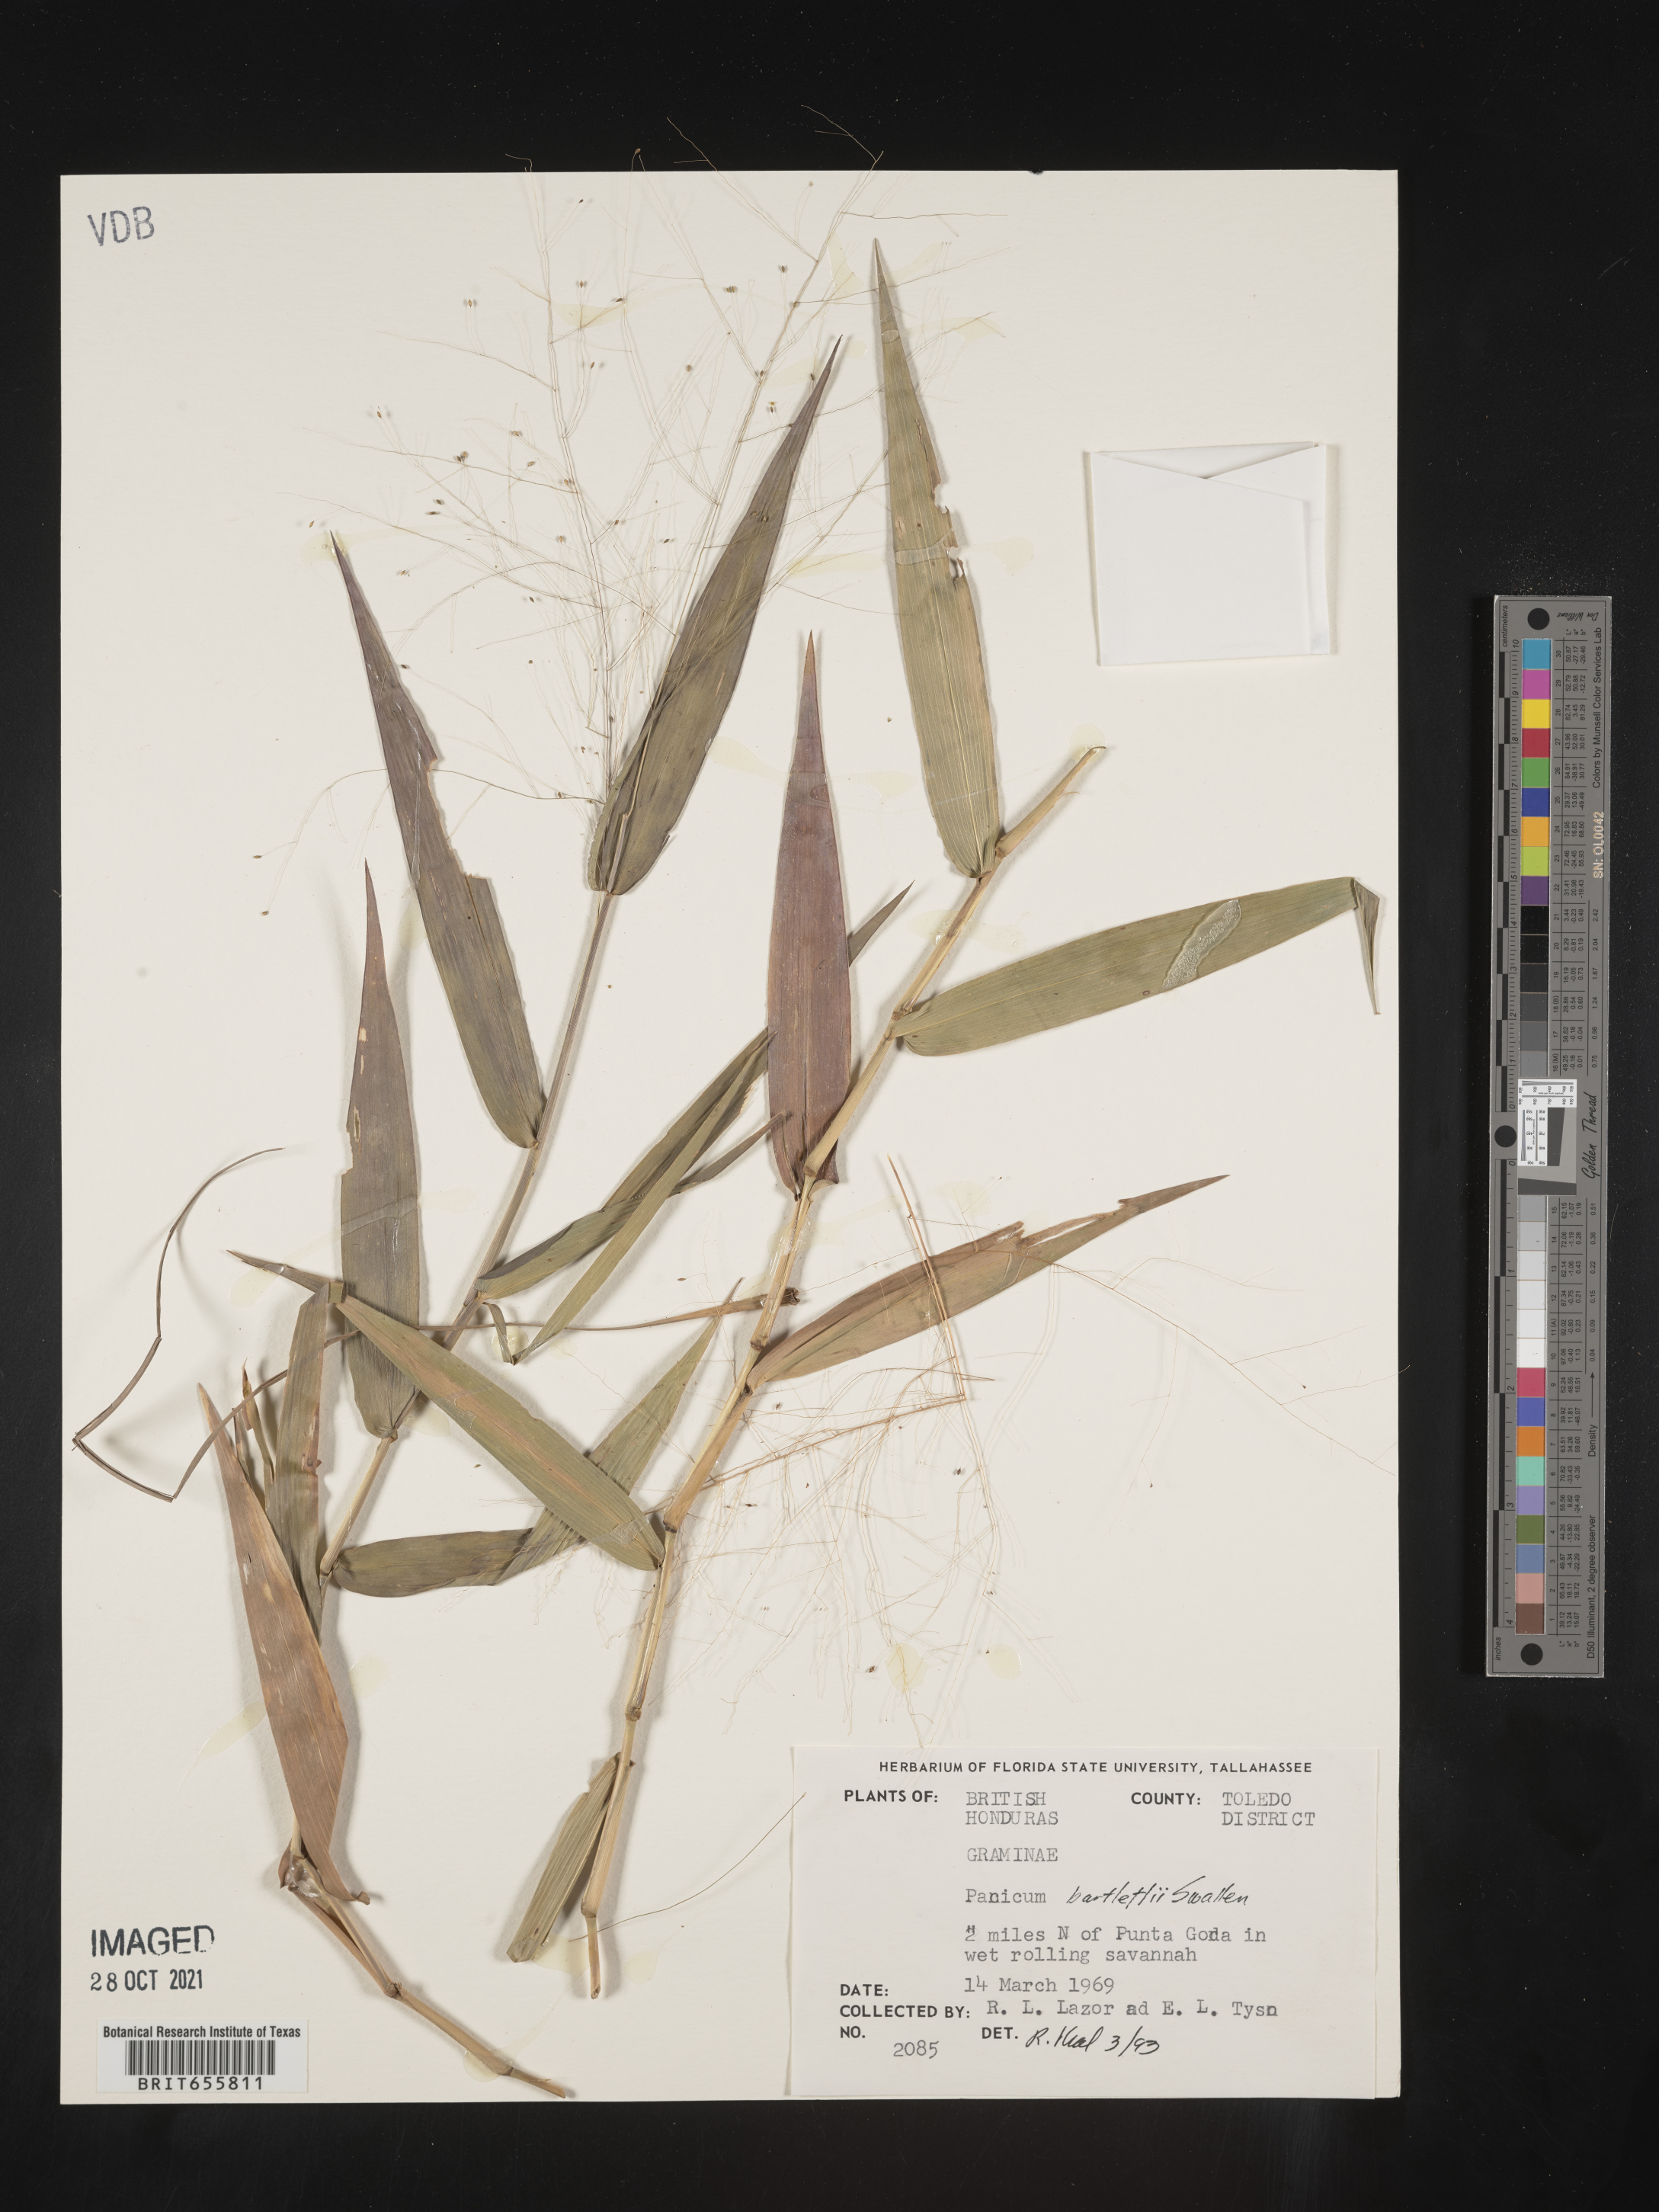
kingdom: Plantae
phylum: Tracheophyta
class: Liliopsida
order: Poales
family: Poaceae
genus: Panicum
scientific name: Panicum
